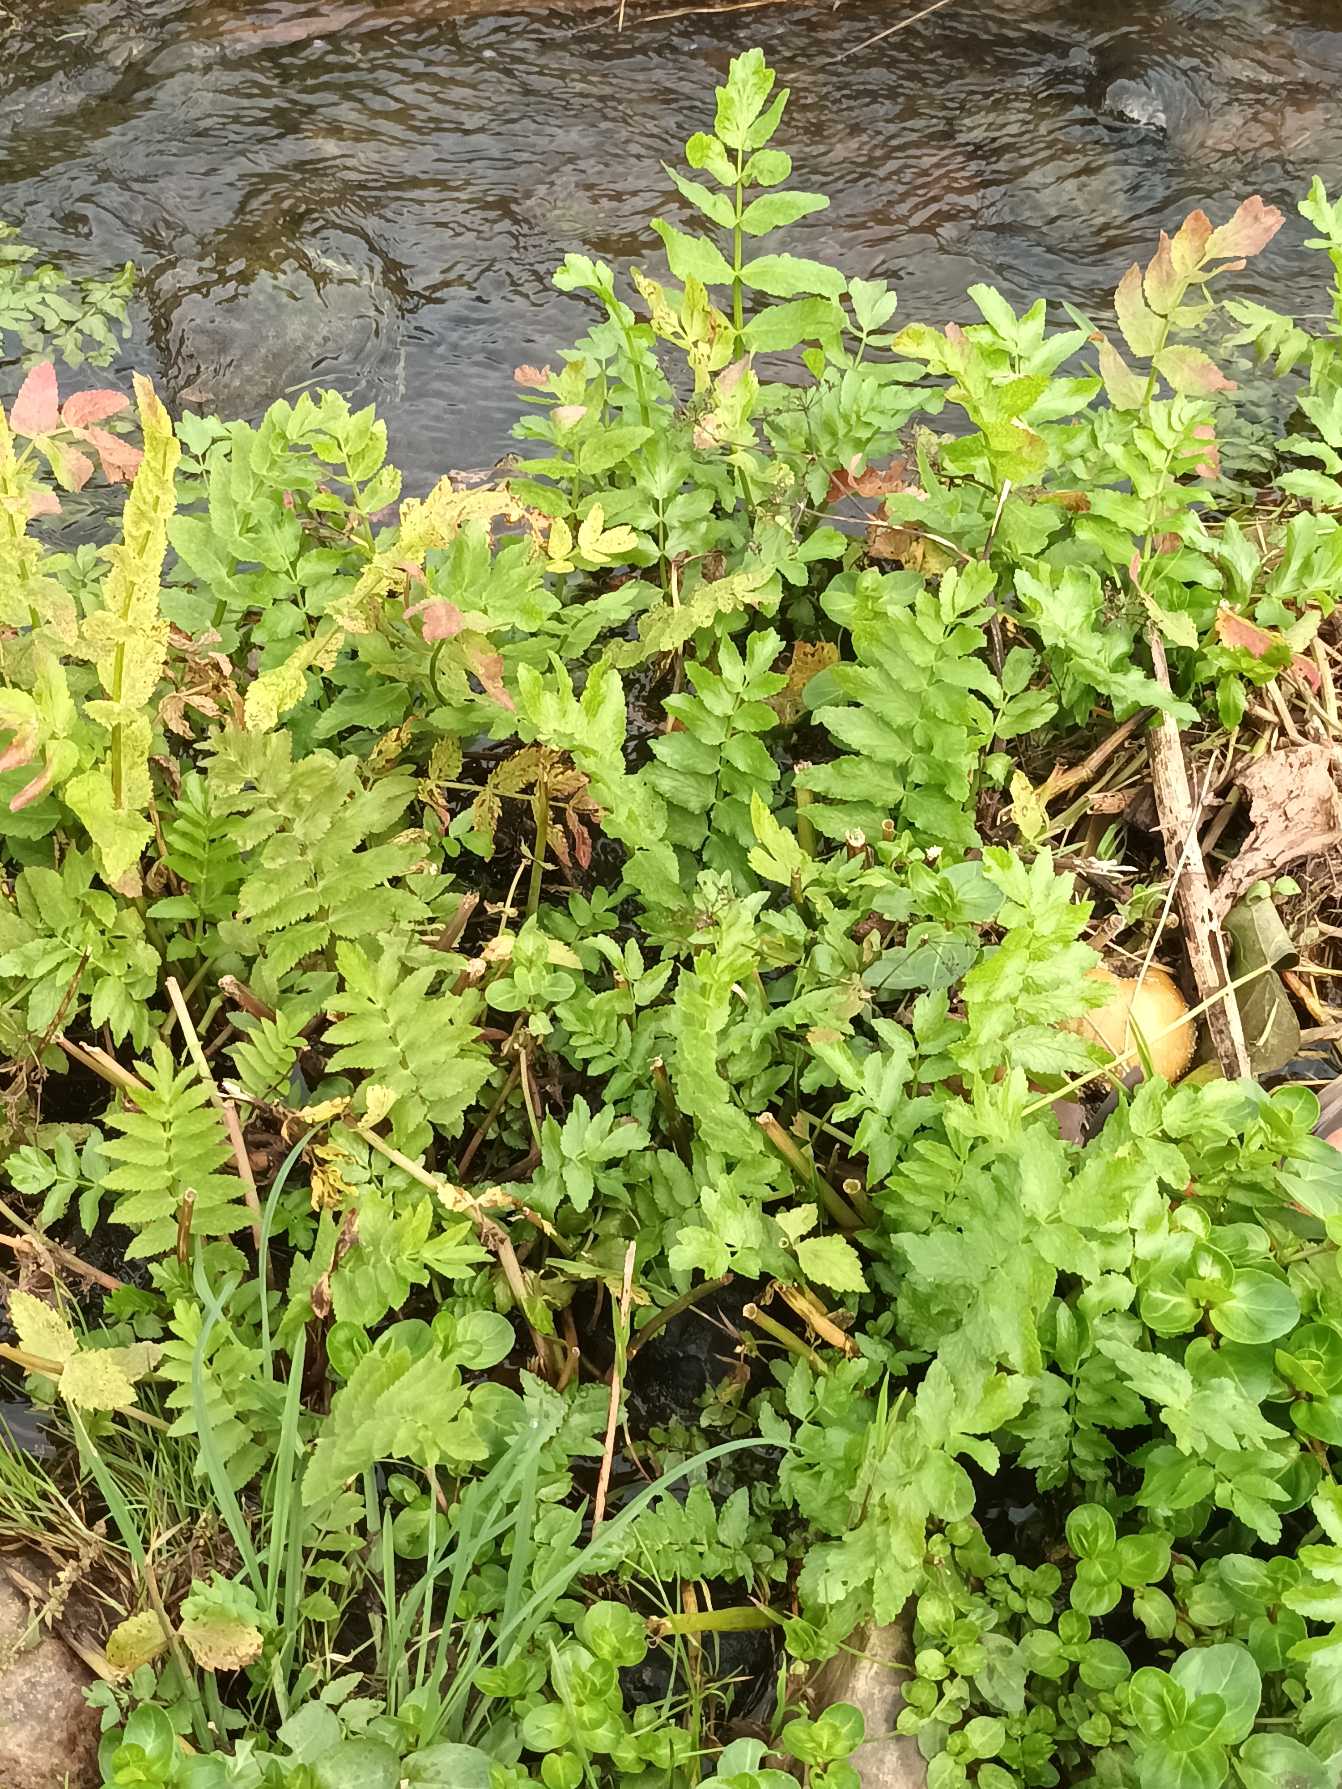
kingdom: Plantae
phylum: Tracheophyta
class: Magnoliopsida
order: Apiales
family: Apiaceae
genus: Berula
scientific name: Berula erecta
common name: Sideskærm
